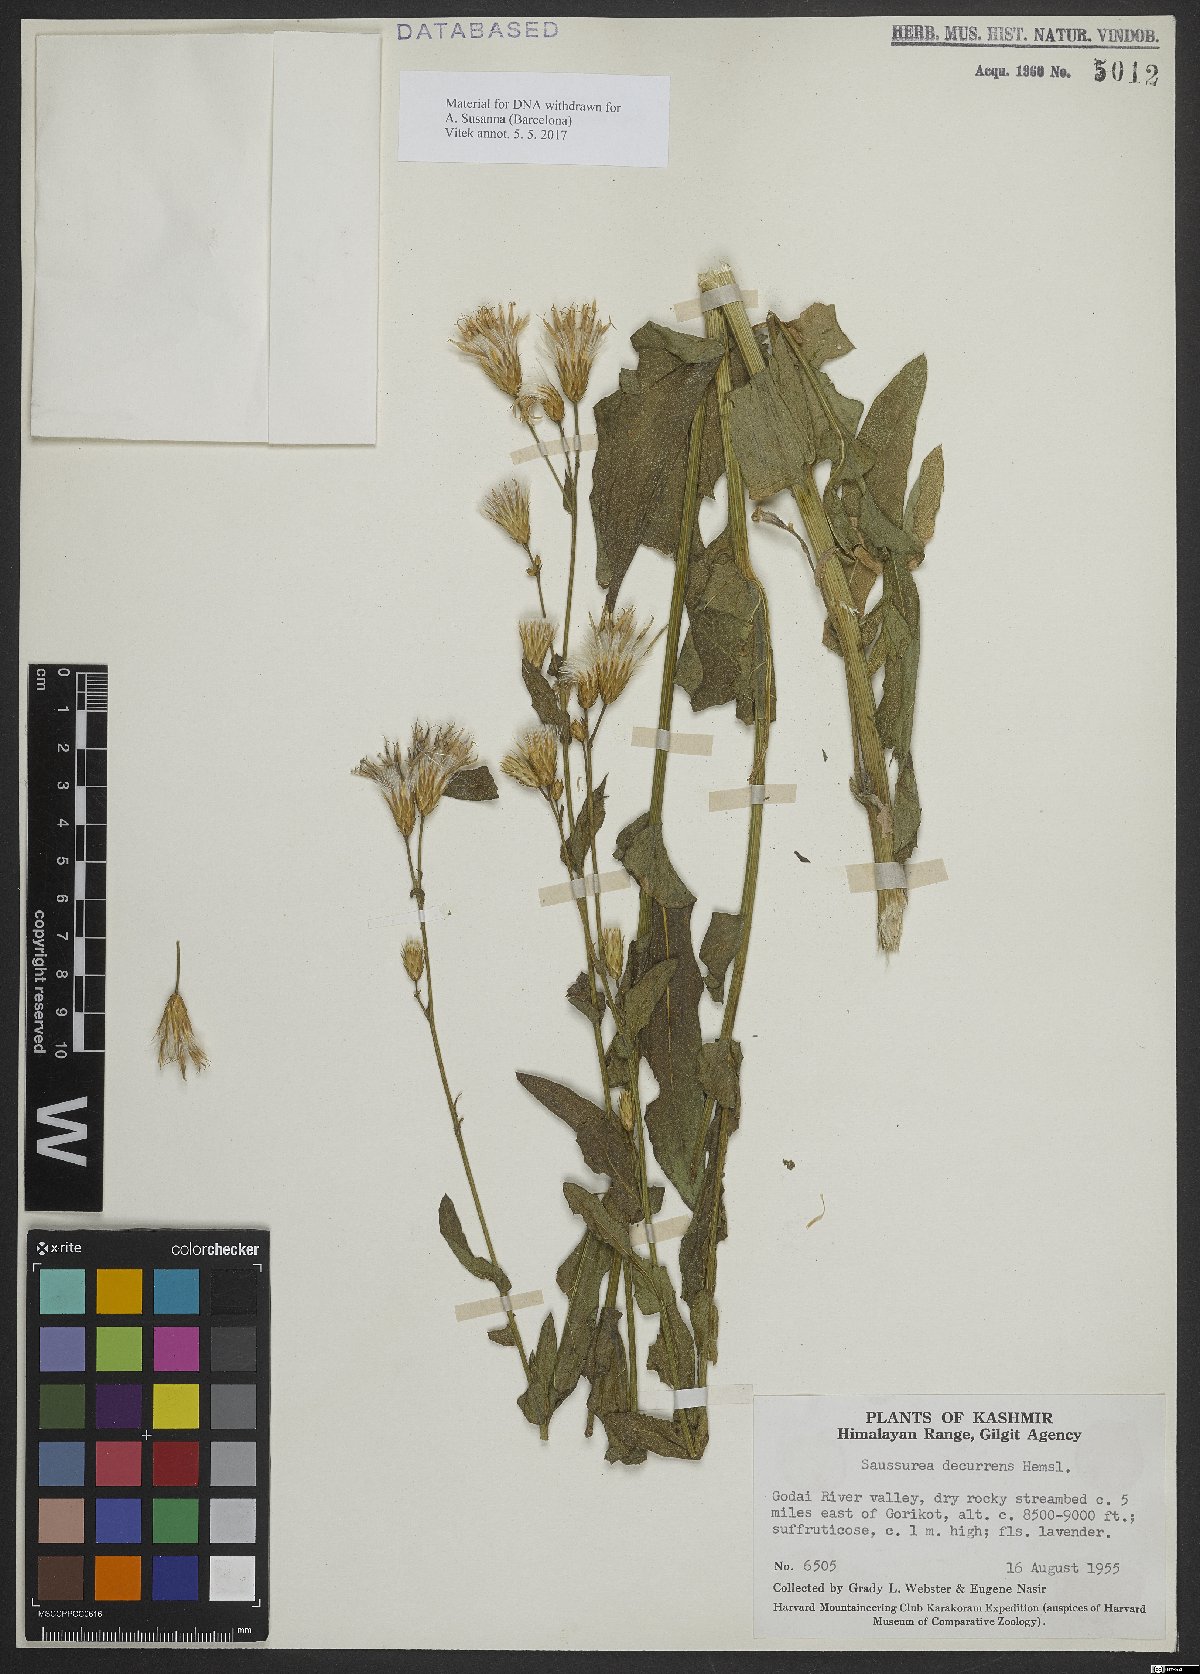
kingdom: Plantae
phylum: Tracheophyta
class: Magnoliopsida
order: Asterales
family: Asteraceae
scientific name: Asteraceae
